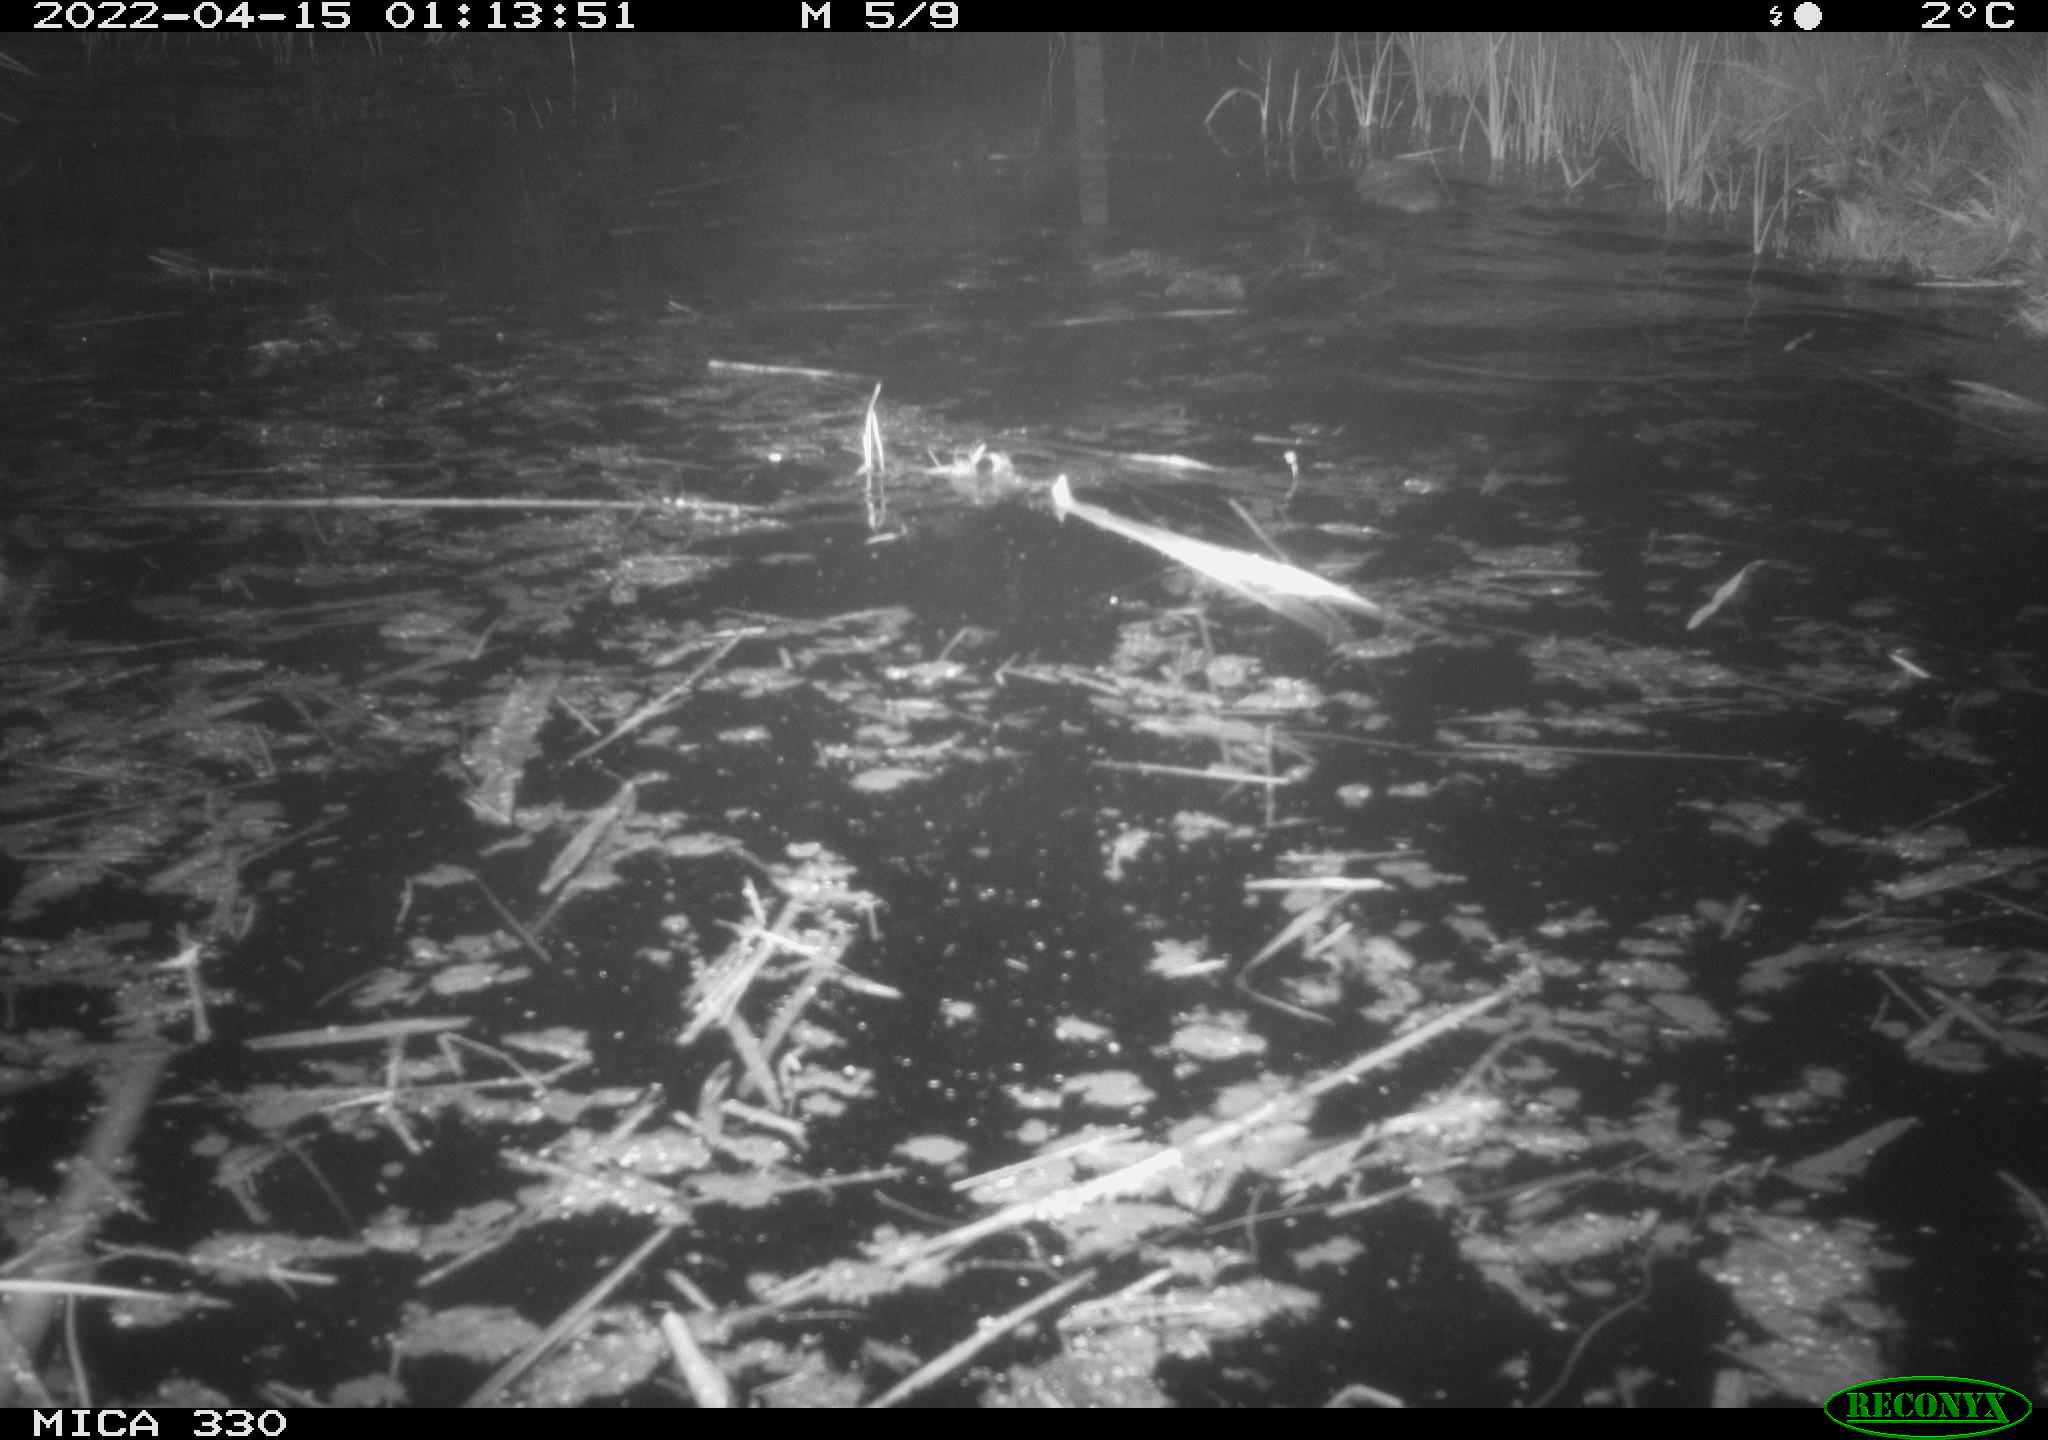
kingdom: Animalia
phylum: Chordata
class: Mammalia
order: Rodentia
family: Cricetidae
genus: Ondatra
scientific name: Ondatra zibethicus
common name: Muskrat
